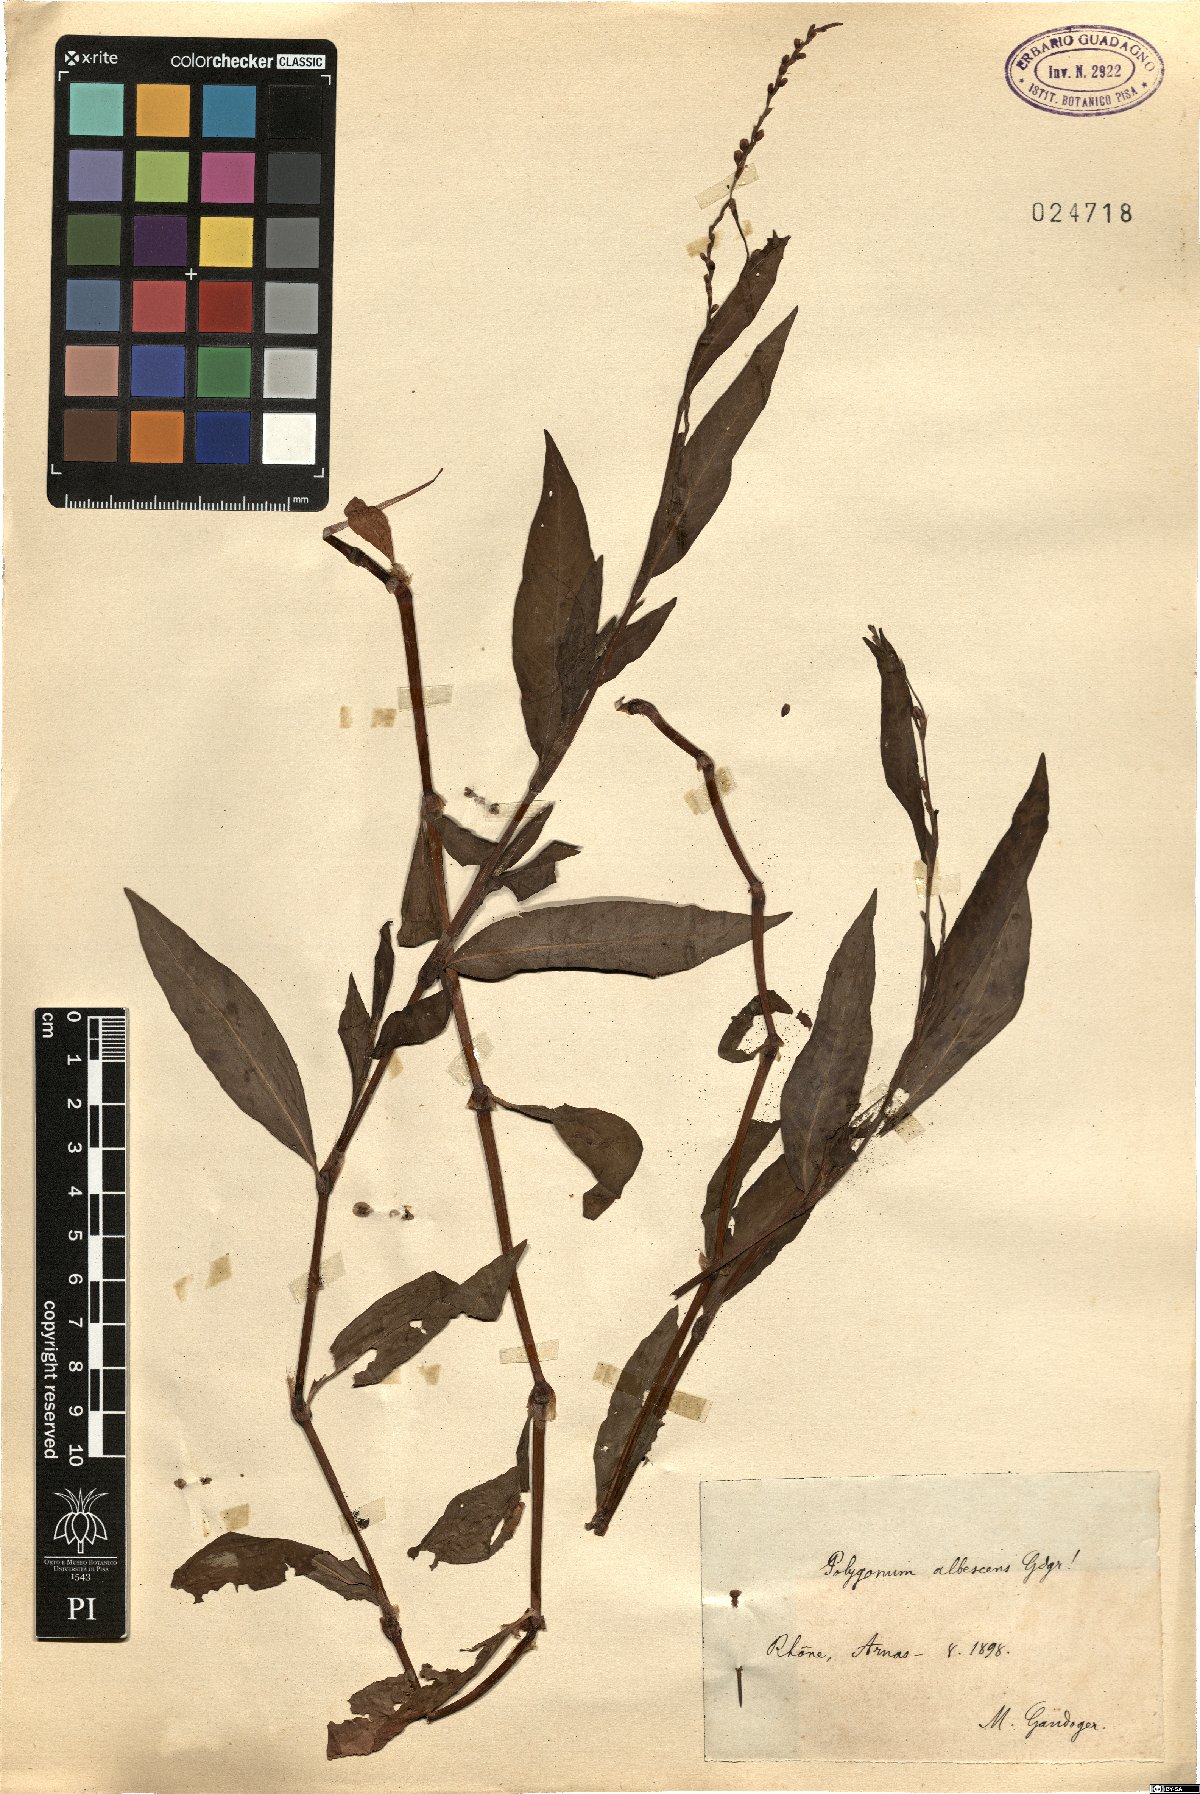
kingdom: Plantae
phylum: Tracheophyta
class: Magnoliopsida
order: Caryophyllales
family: Polygonaceae
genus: Persicaria
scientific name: Persicaria maculosa
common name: Redshank
